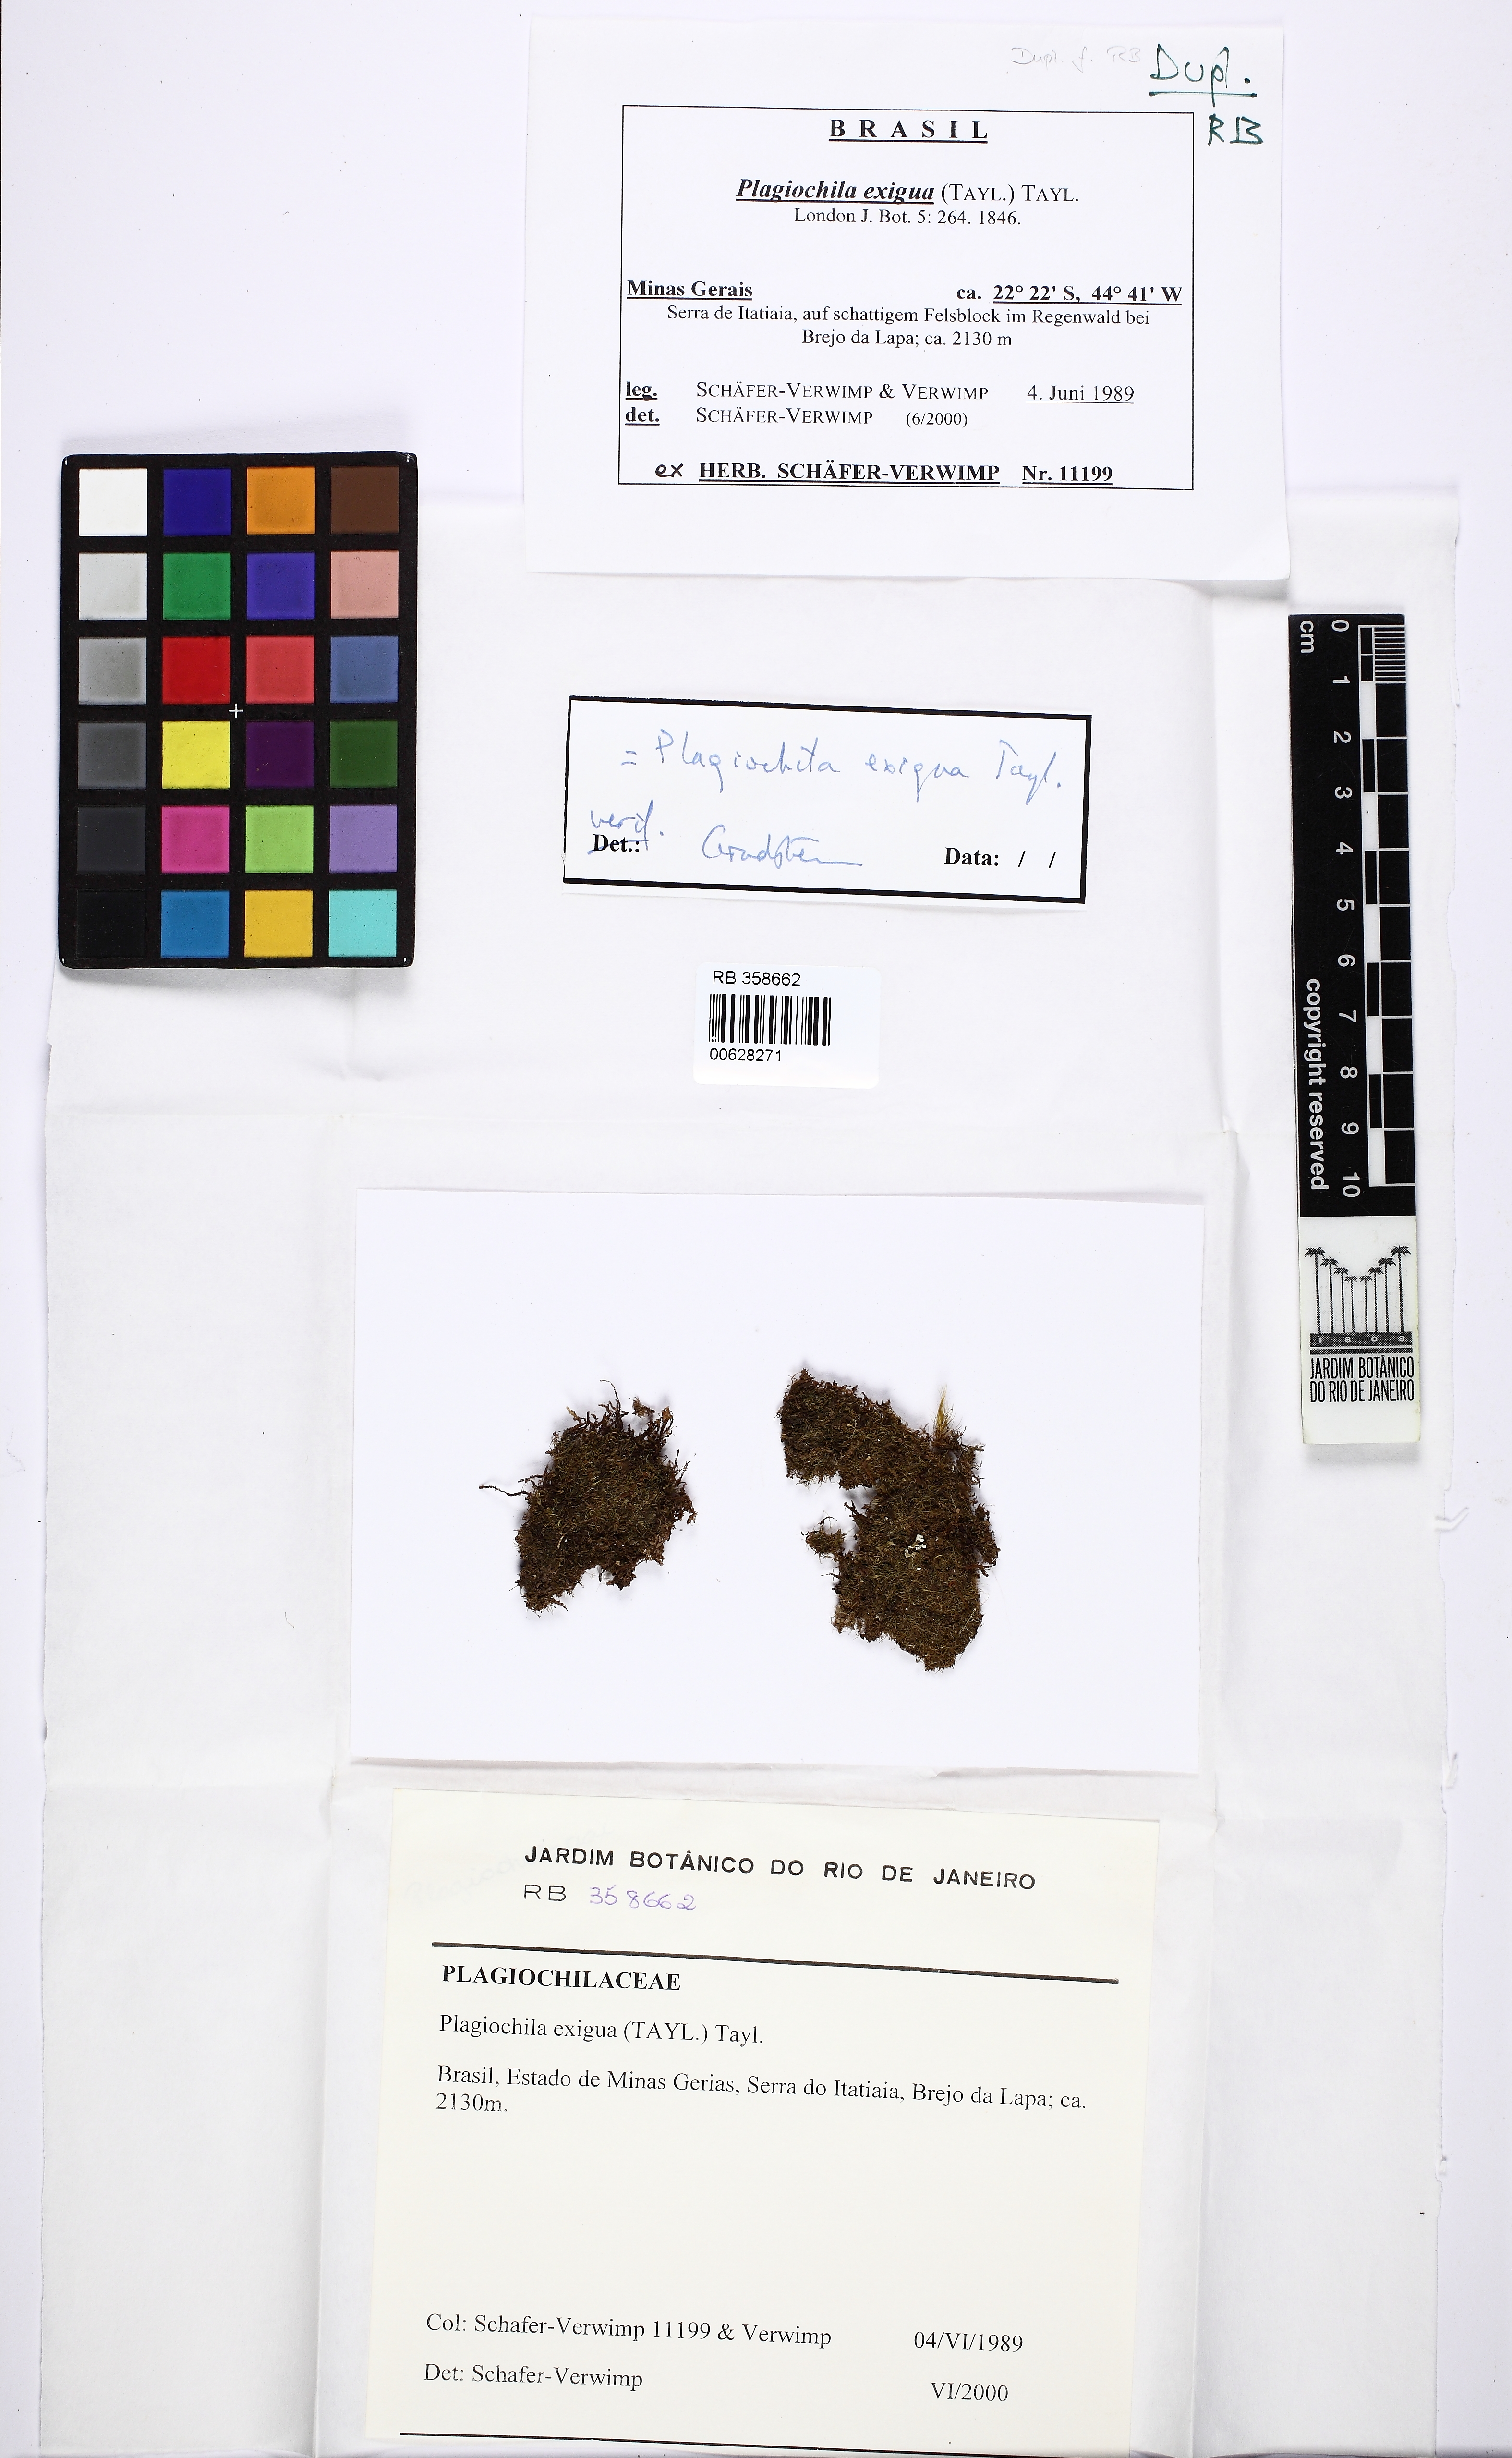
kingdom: Plantae
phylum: Marchantiophyta
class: Jungermanniopsida
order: Jungermanniales
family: Plagiochilaceae
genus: Plagiochila
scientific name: Plagiochila exigua
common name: Petty featherwort
